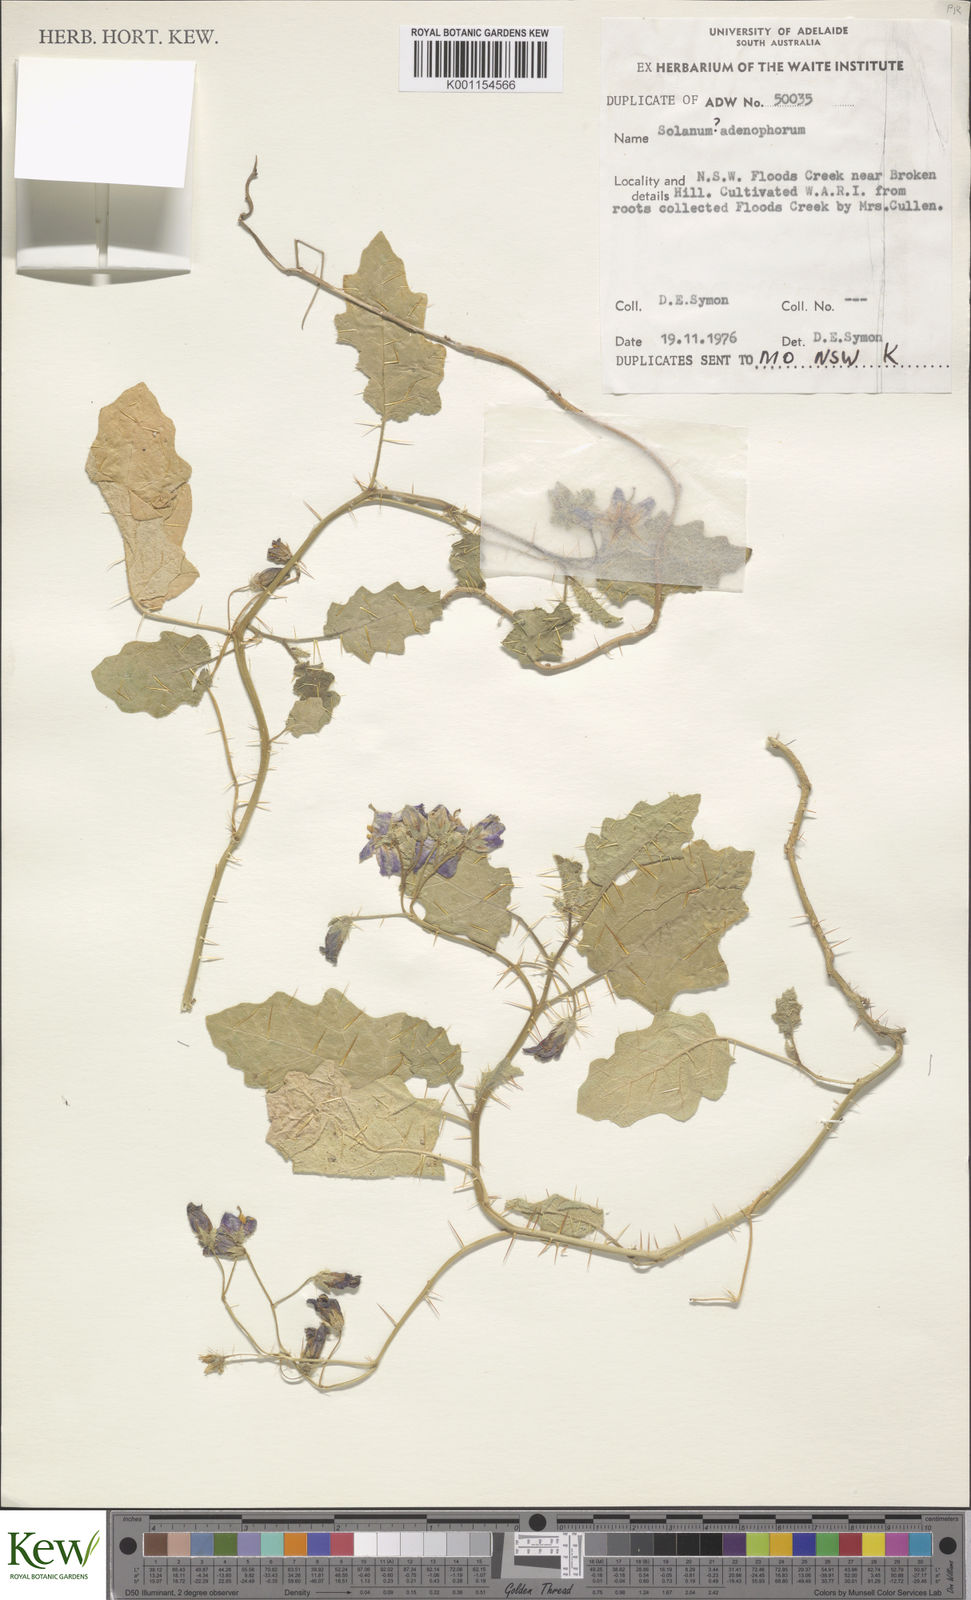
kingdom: Plantae
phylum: Tracheophyta
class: Magnoliopsida
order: Solanales
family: Solanaceae
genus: Solanum
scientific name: Solanum eremophilum
